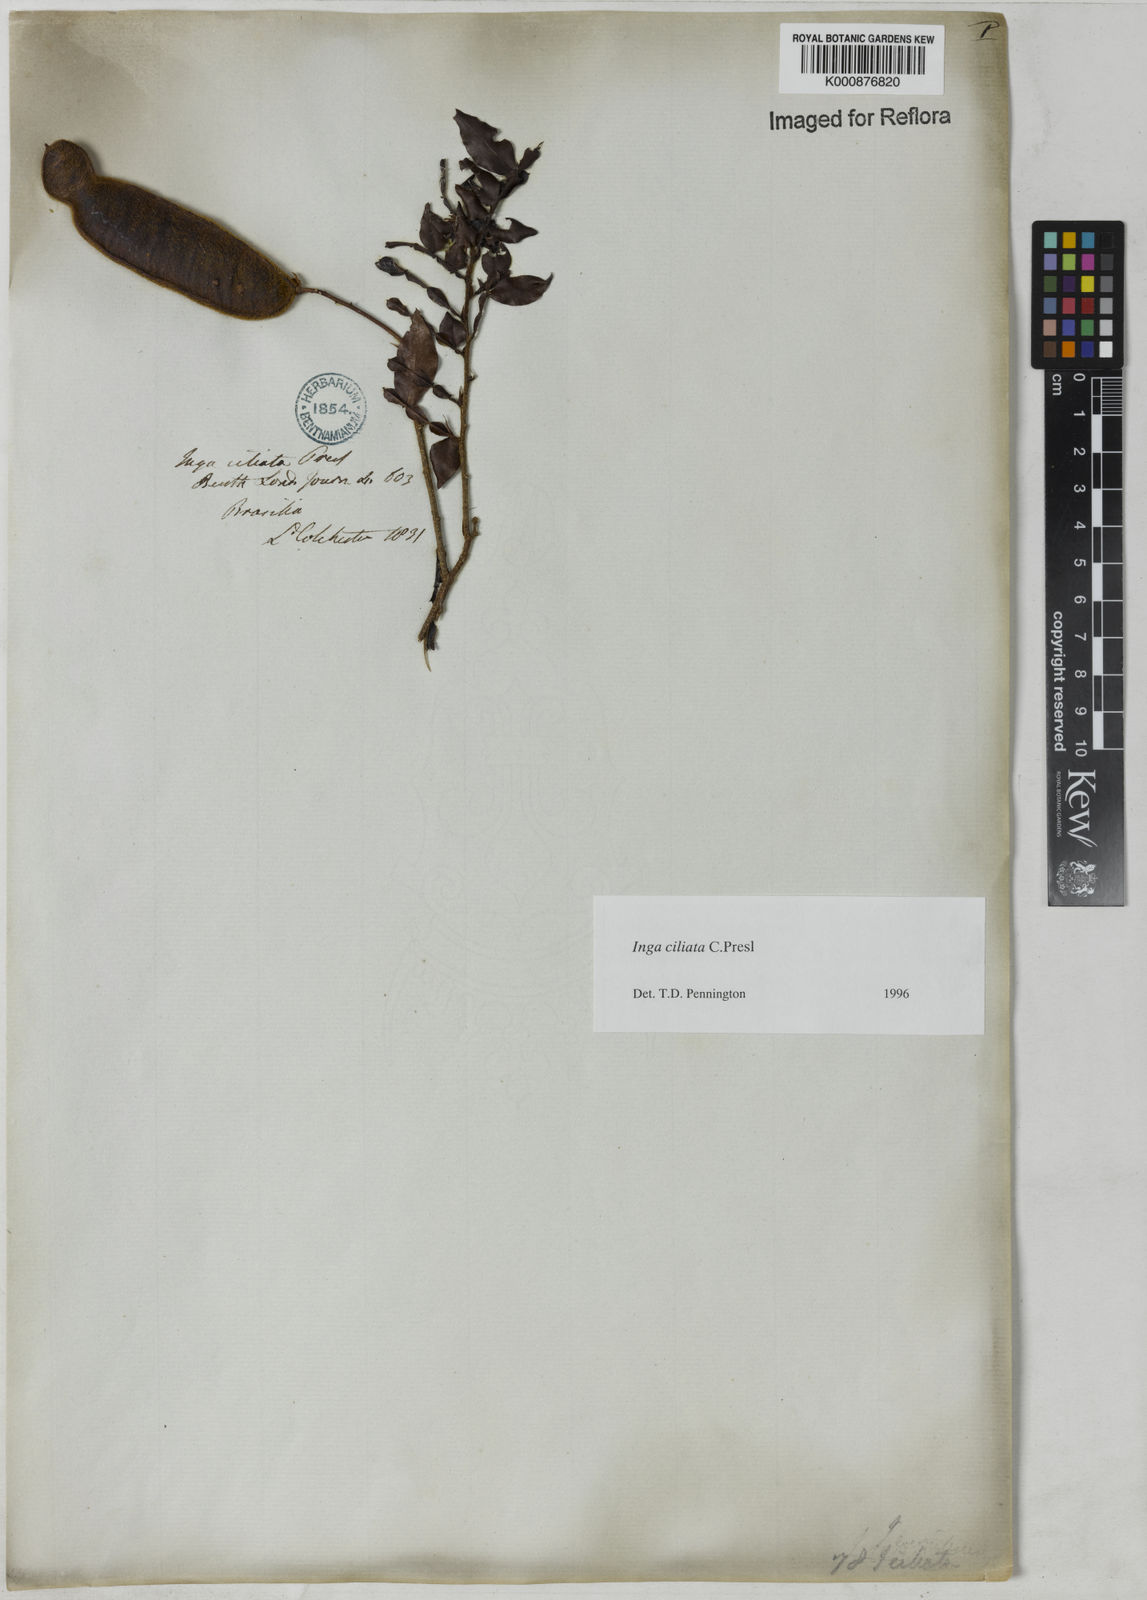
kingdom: Plantae
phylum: Tracheophyta
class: Magnoliopsida
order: Fabales
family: Fabaceae
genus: Inga
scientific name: Inga ciliata
